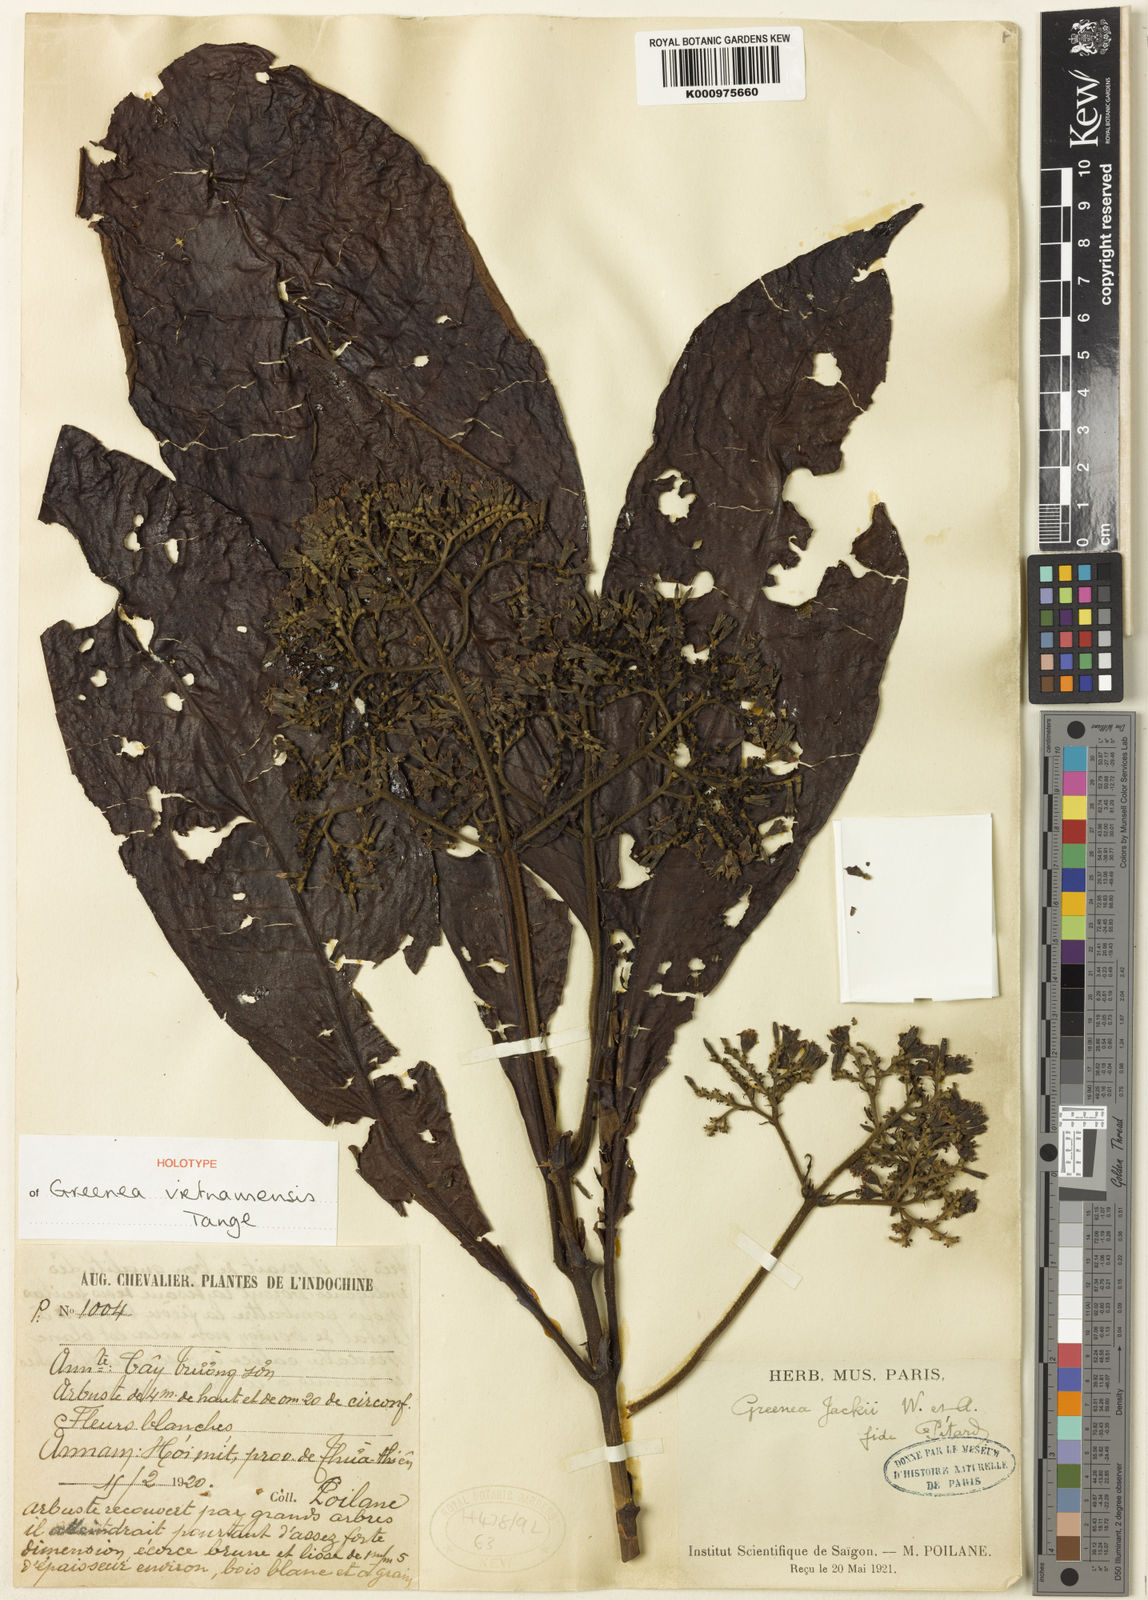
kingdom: Plantae
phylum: Tracheophyta
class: Magnoliopsida
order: Gentianales
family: Rubiaceae
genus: Greenea
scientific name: Greenea vietnamensis
